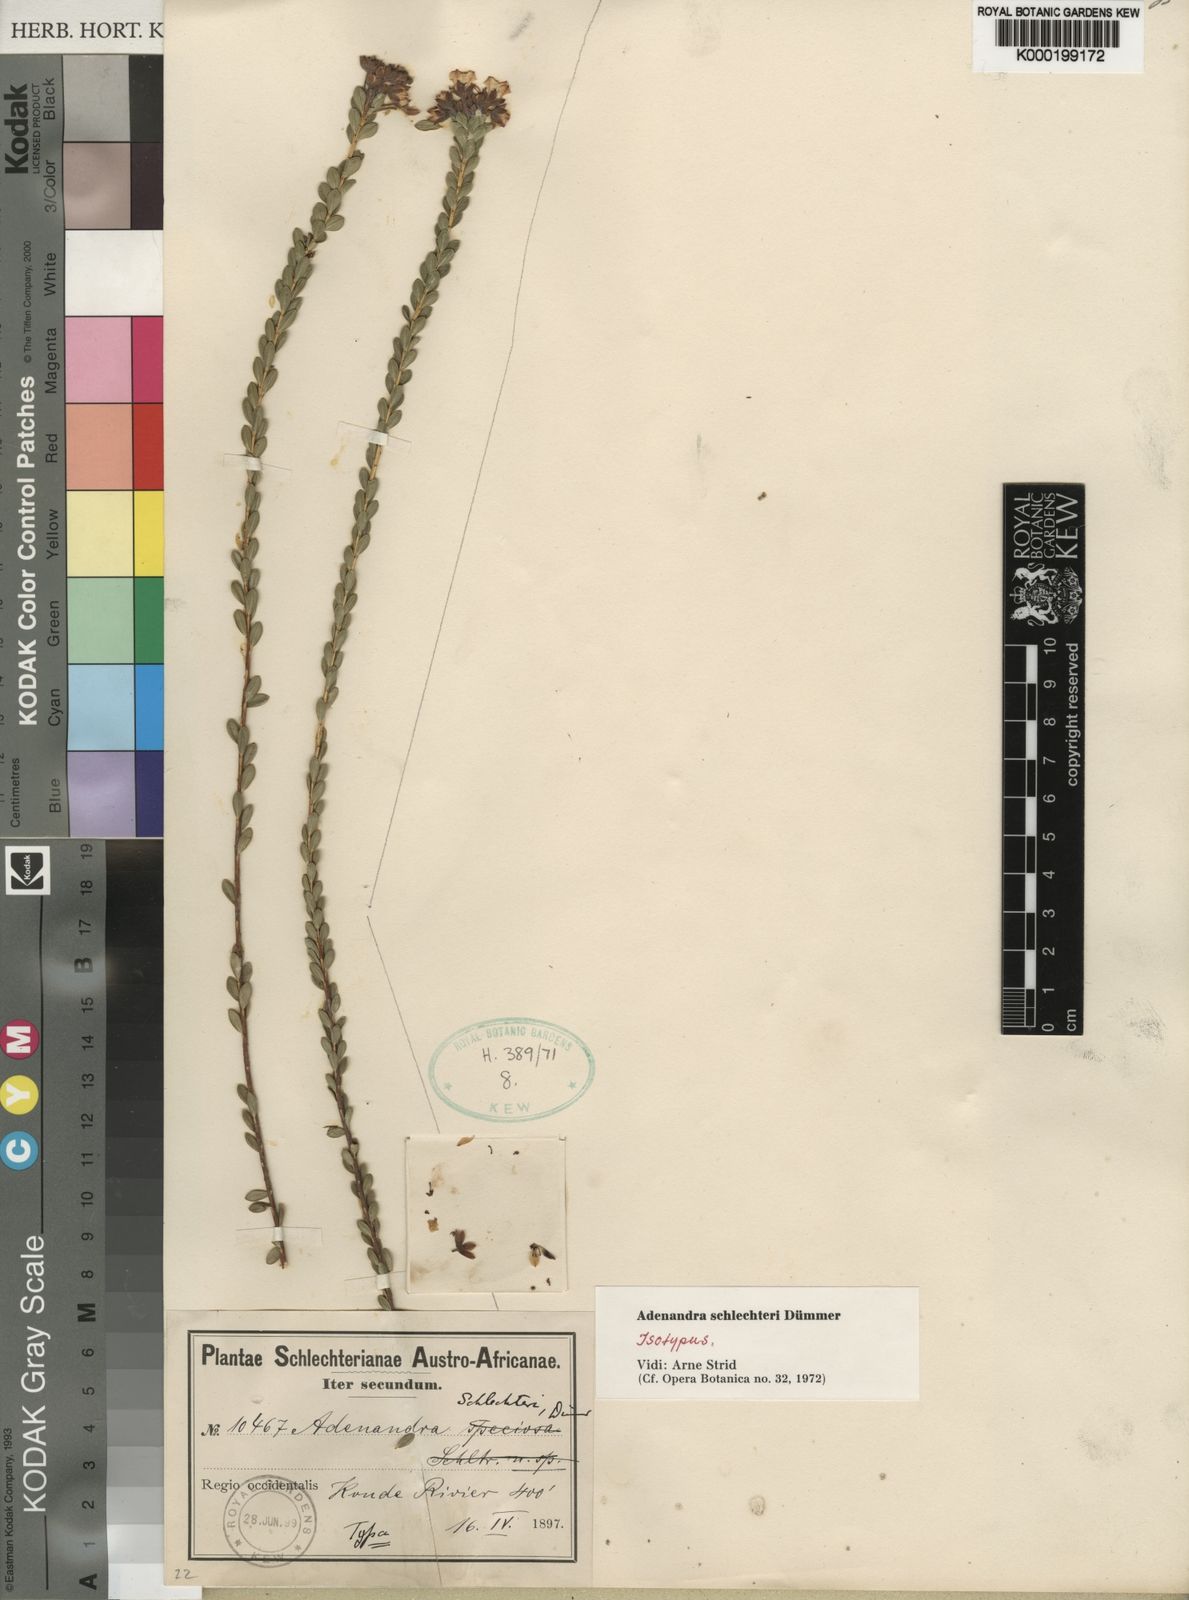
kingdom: Plantae
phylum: Tracheophyta
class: Magnoliopsida
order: Sapindales
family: Rutaceae
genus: Adenandra
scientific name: Adenandra schlechteri
